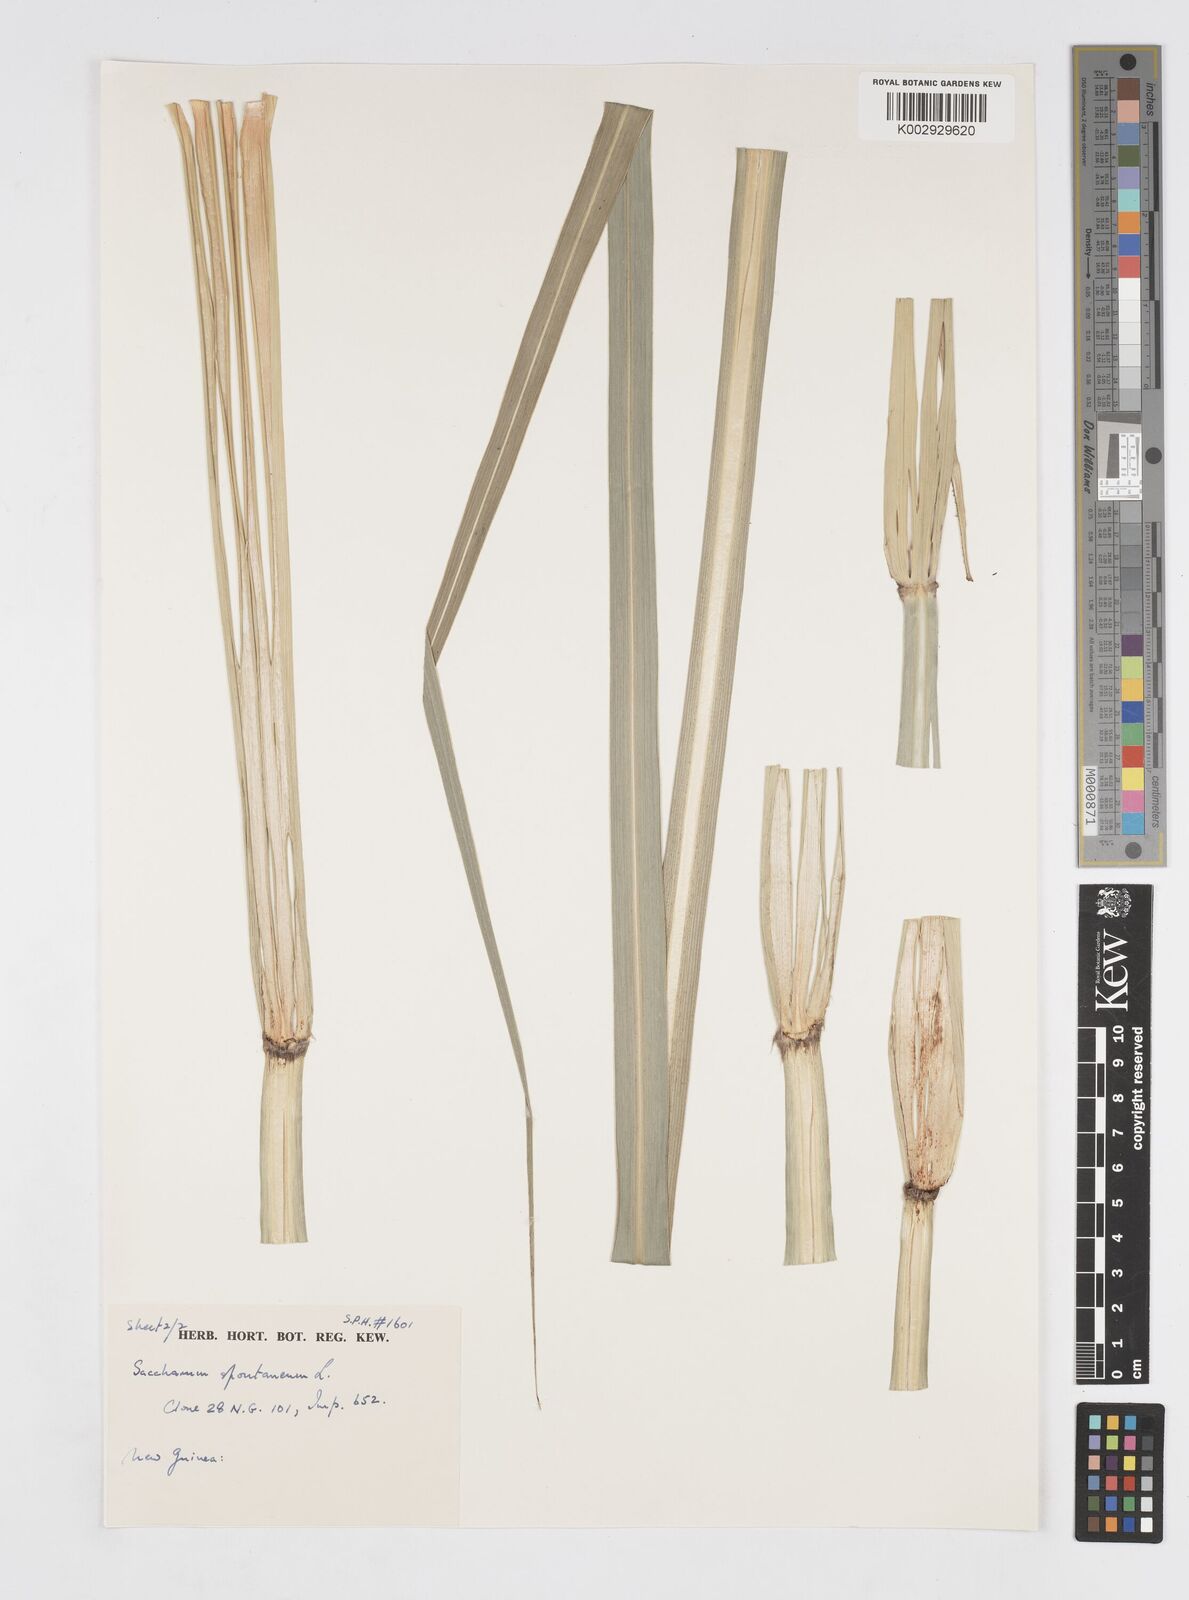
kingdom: Plantae
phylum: Tracheophyta
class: Liliopsida
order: Poales
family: Poaceae
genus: Saccharum
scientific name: Saccharum spontaneum
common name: Wild sugarcane
